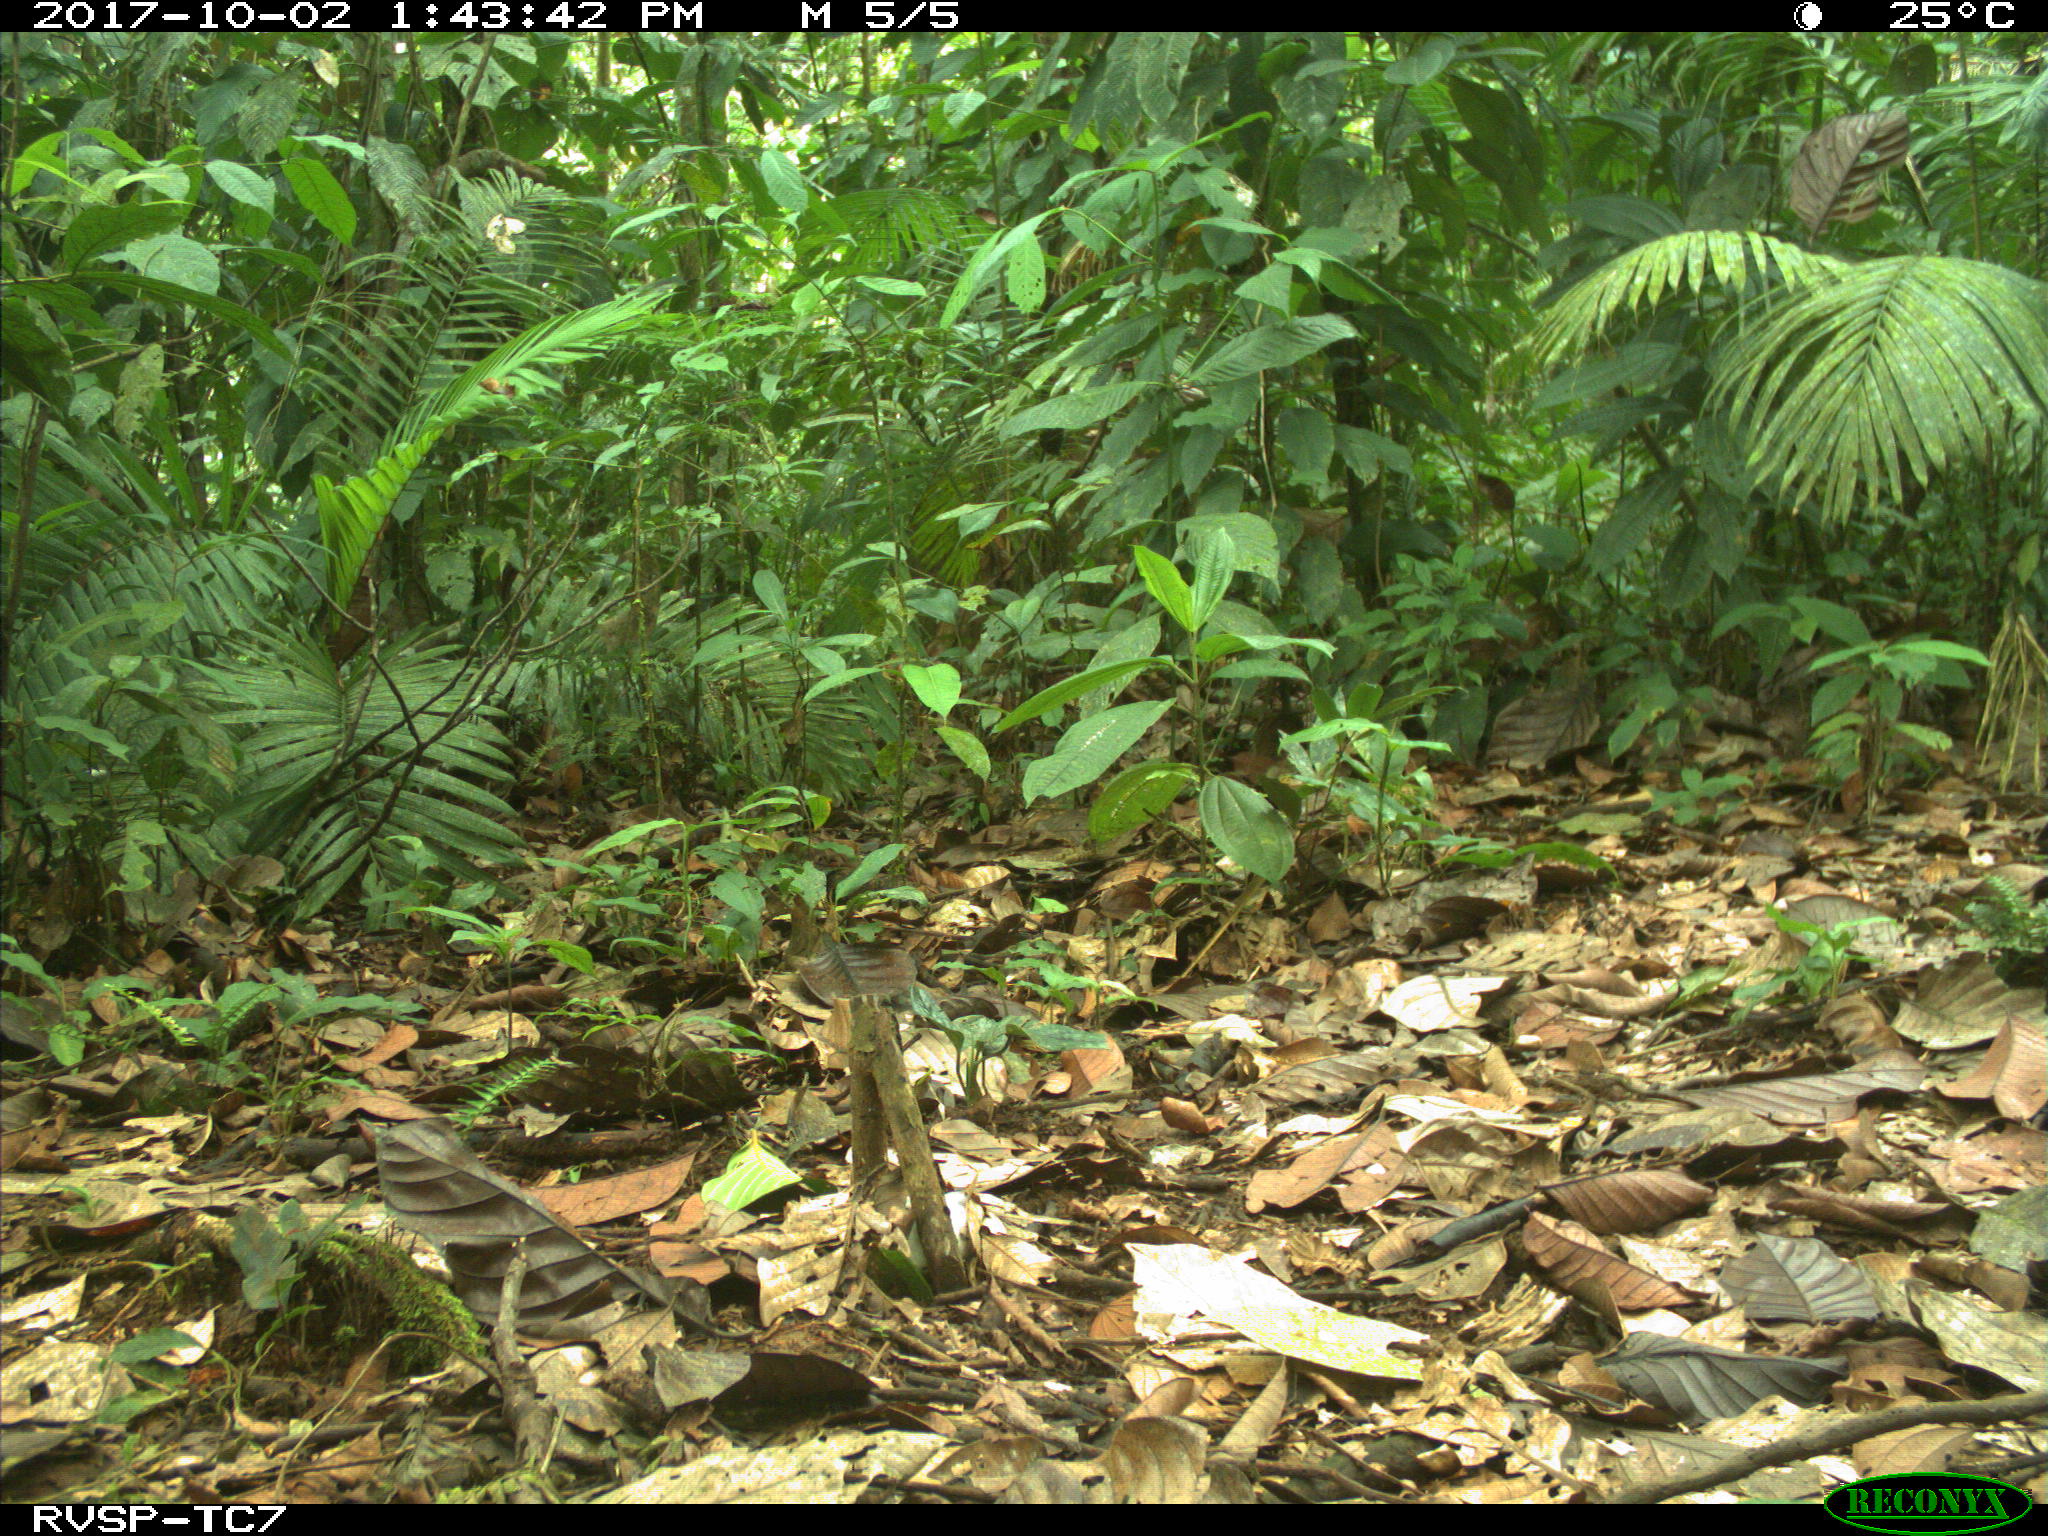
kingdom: Animalia
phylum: Chordata
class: Mammalia
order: Carnivora
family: Mustelidae
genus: Eira
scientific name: Eira barbara
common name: Tayra
